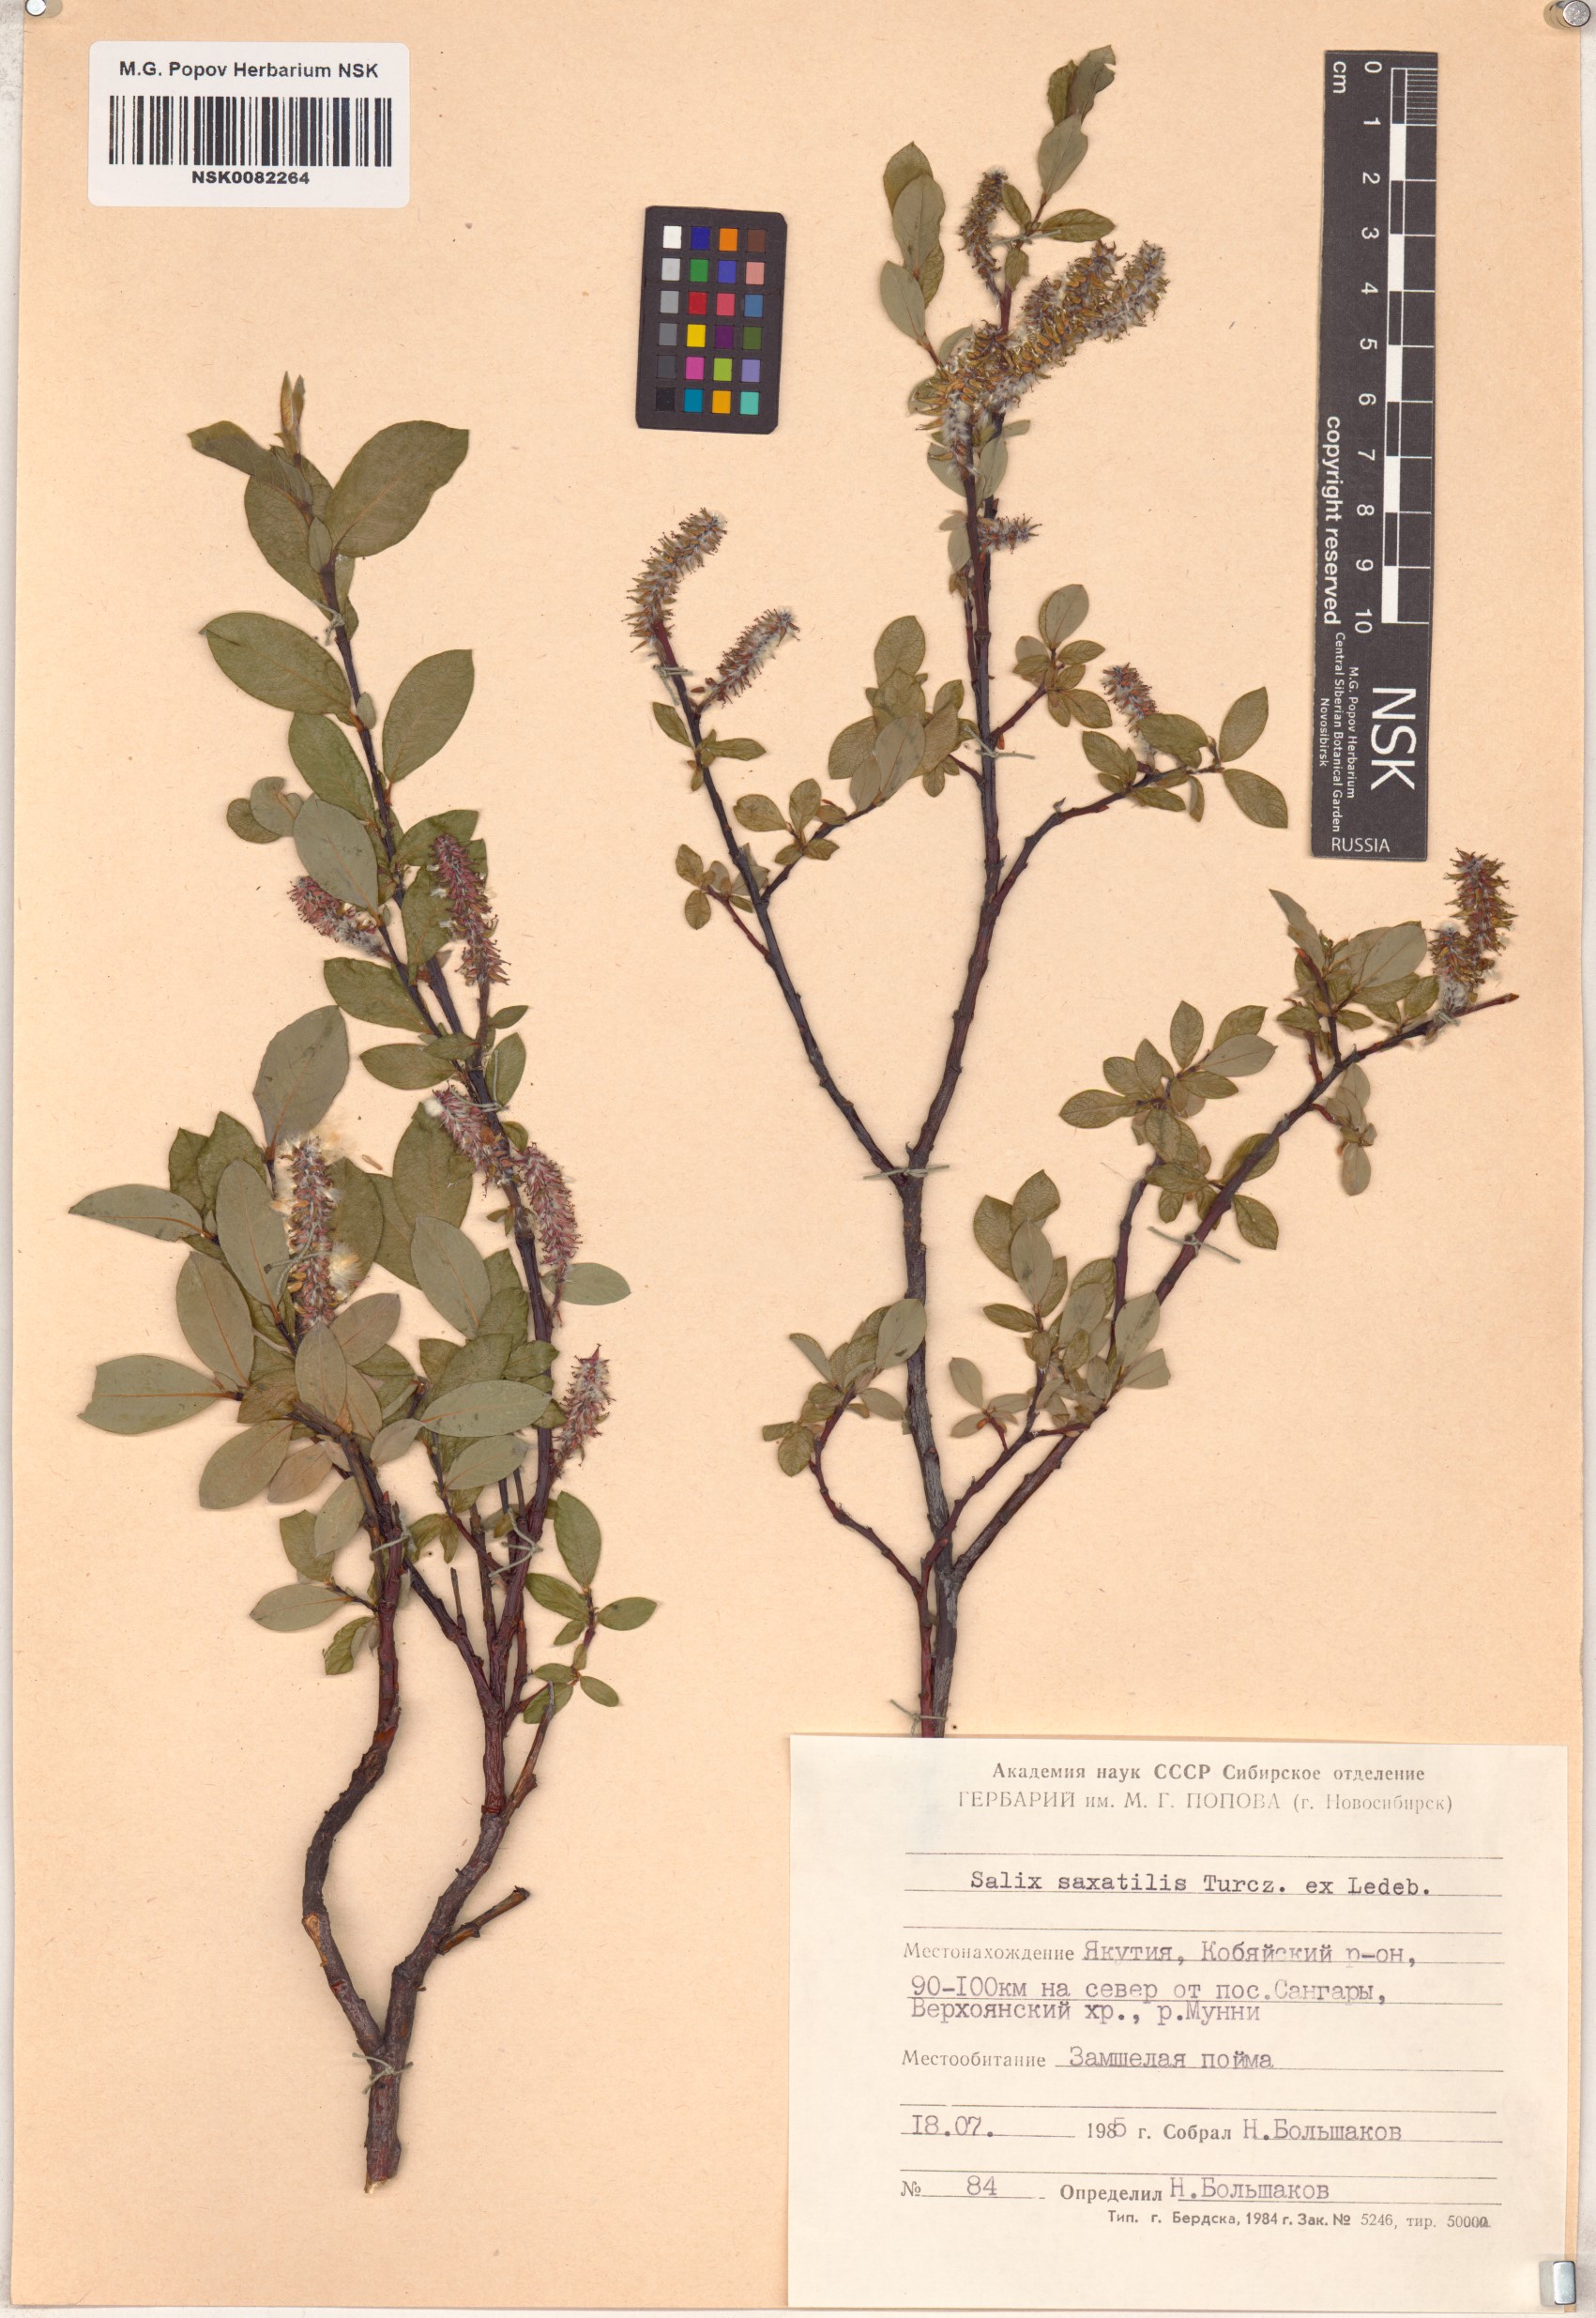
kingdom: Plantae
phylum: Tracheophyta
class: Magnoliopsida
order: Malpighiales
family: Salicaceae
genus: Salix
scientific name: Salix saxatilis
